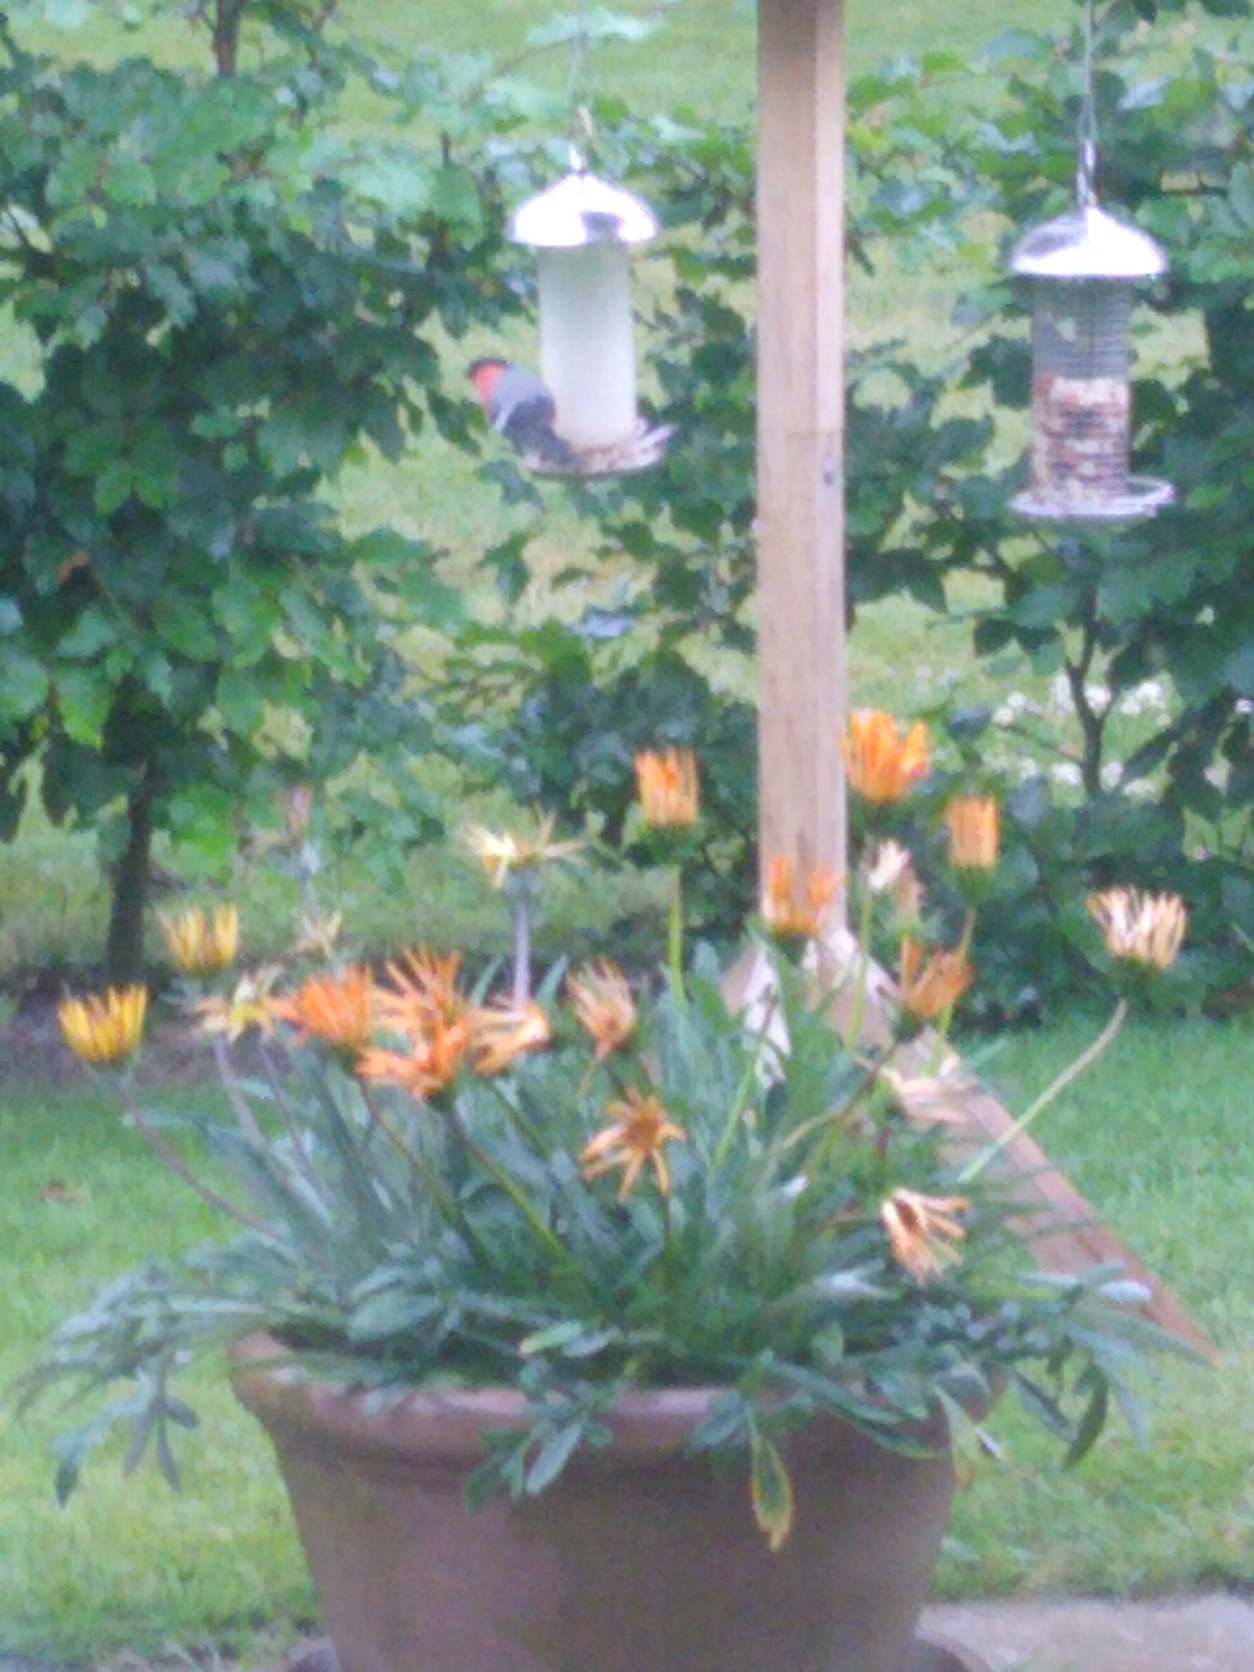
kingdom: Animalia
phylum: Chordata
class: Aves
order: Passeriformes
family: Fringillidae
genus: Pyrrhula
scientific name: Pyrrhula pyrrhula
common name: Dompap
